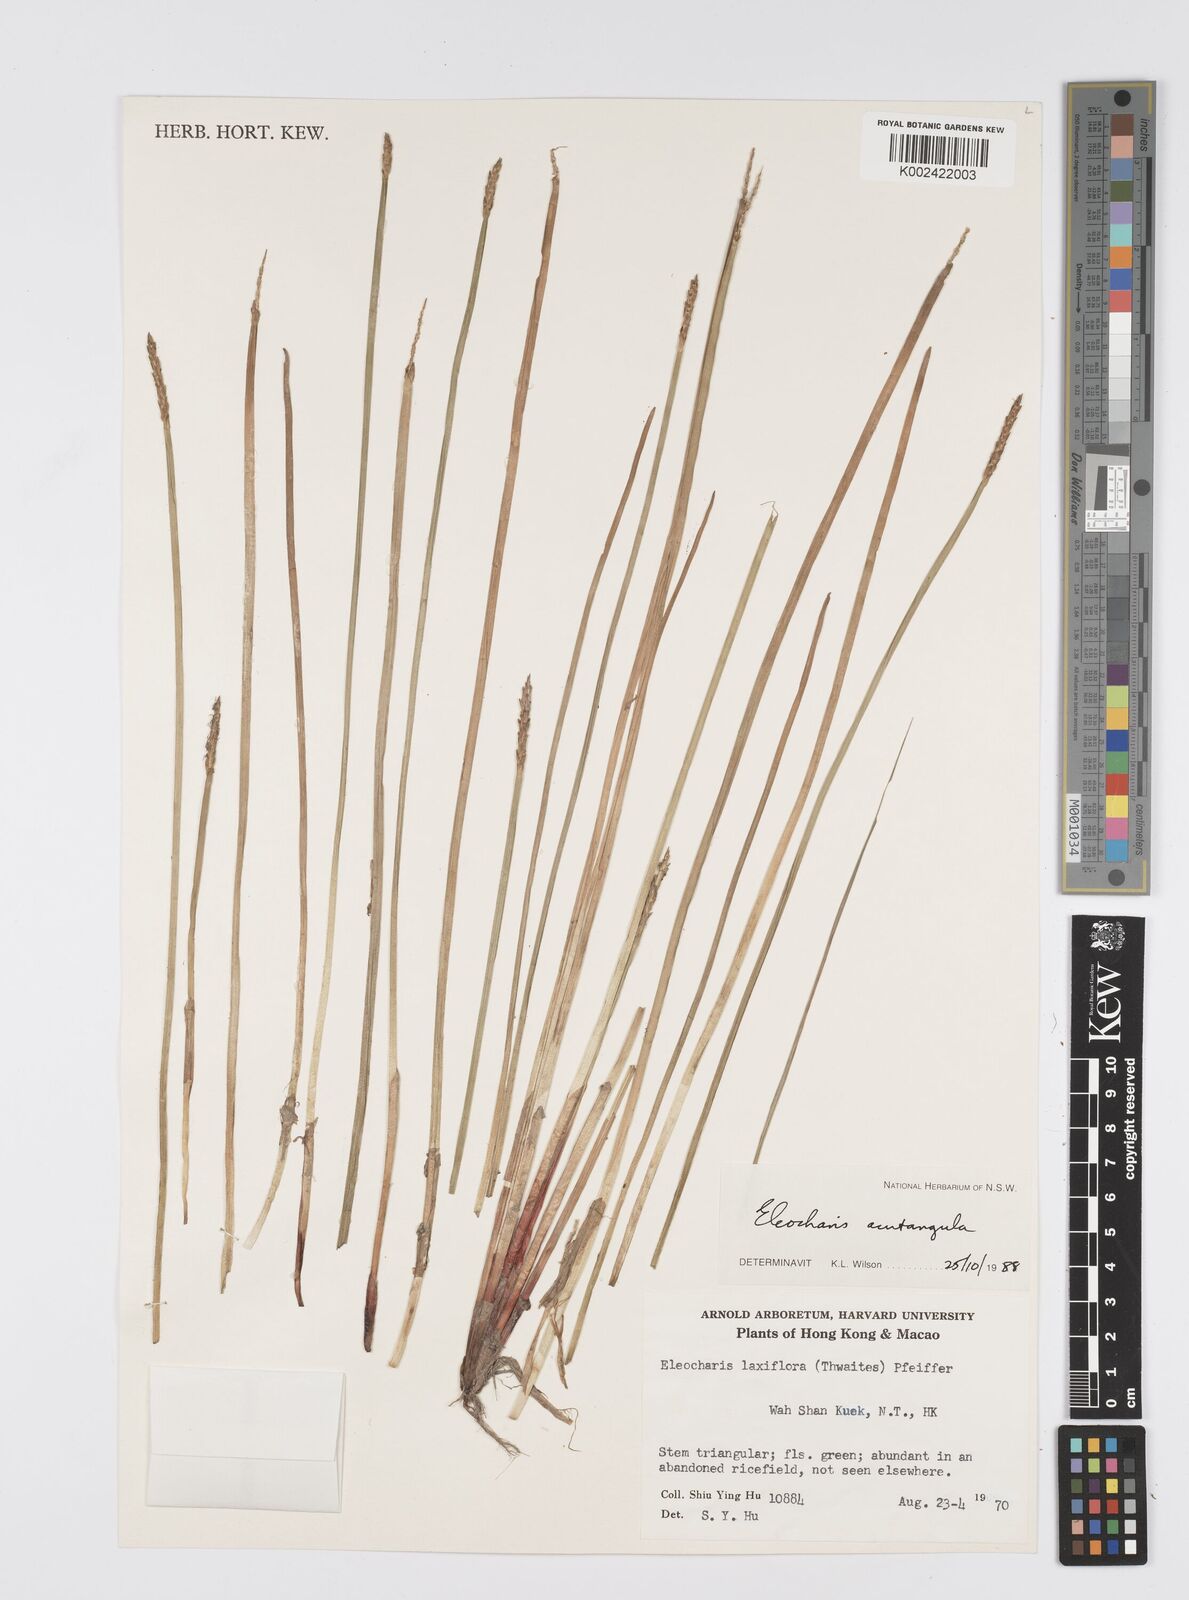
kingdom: Plantae
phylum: Tracheophyta
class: Liliopsida
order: Poales
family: Cyperaceae
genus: Eleocharis
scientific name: Eleocharis acutangula
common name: Acute spikerush
